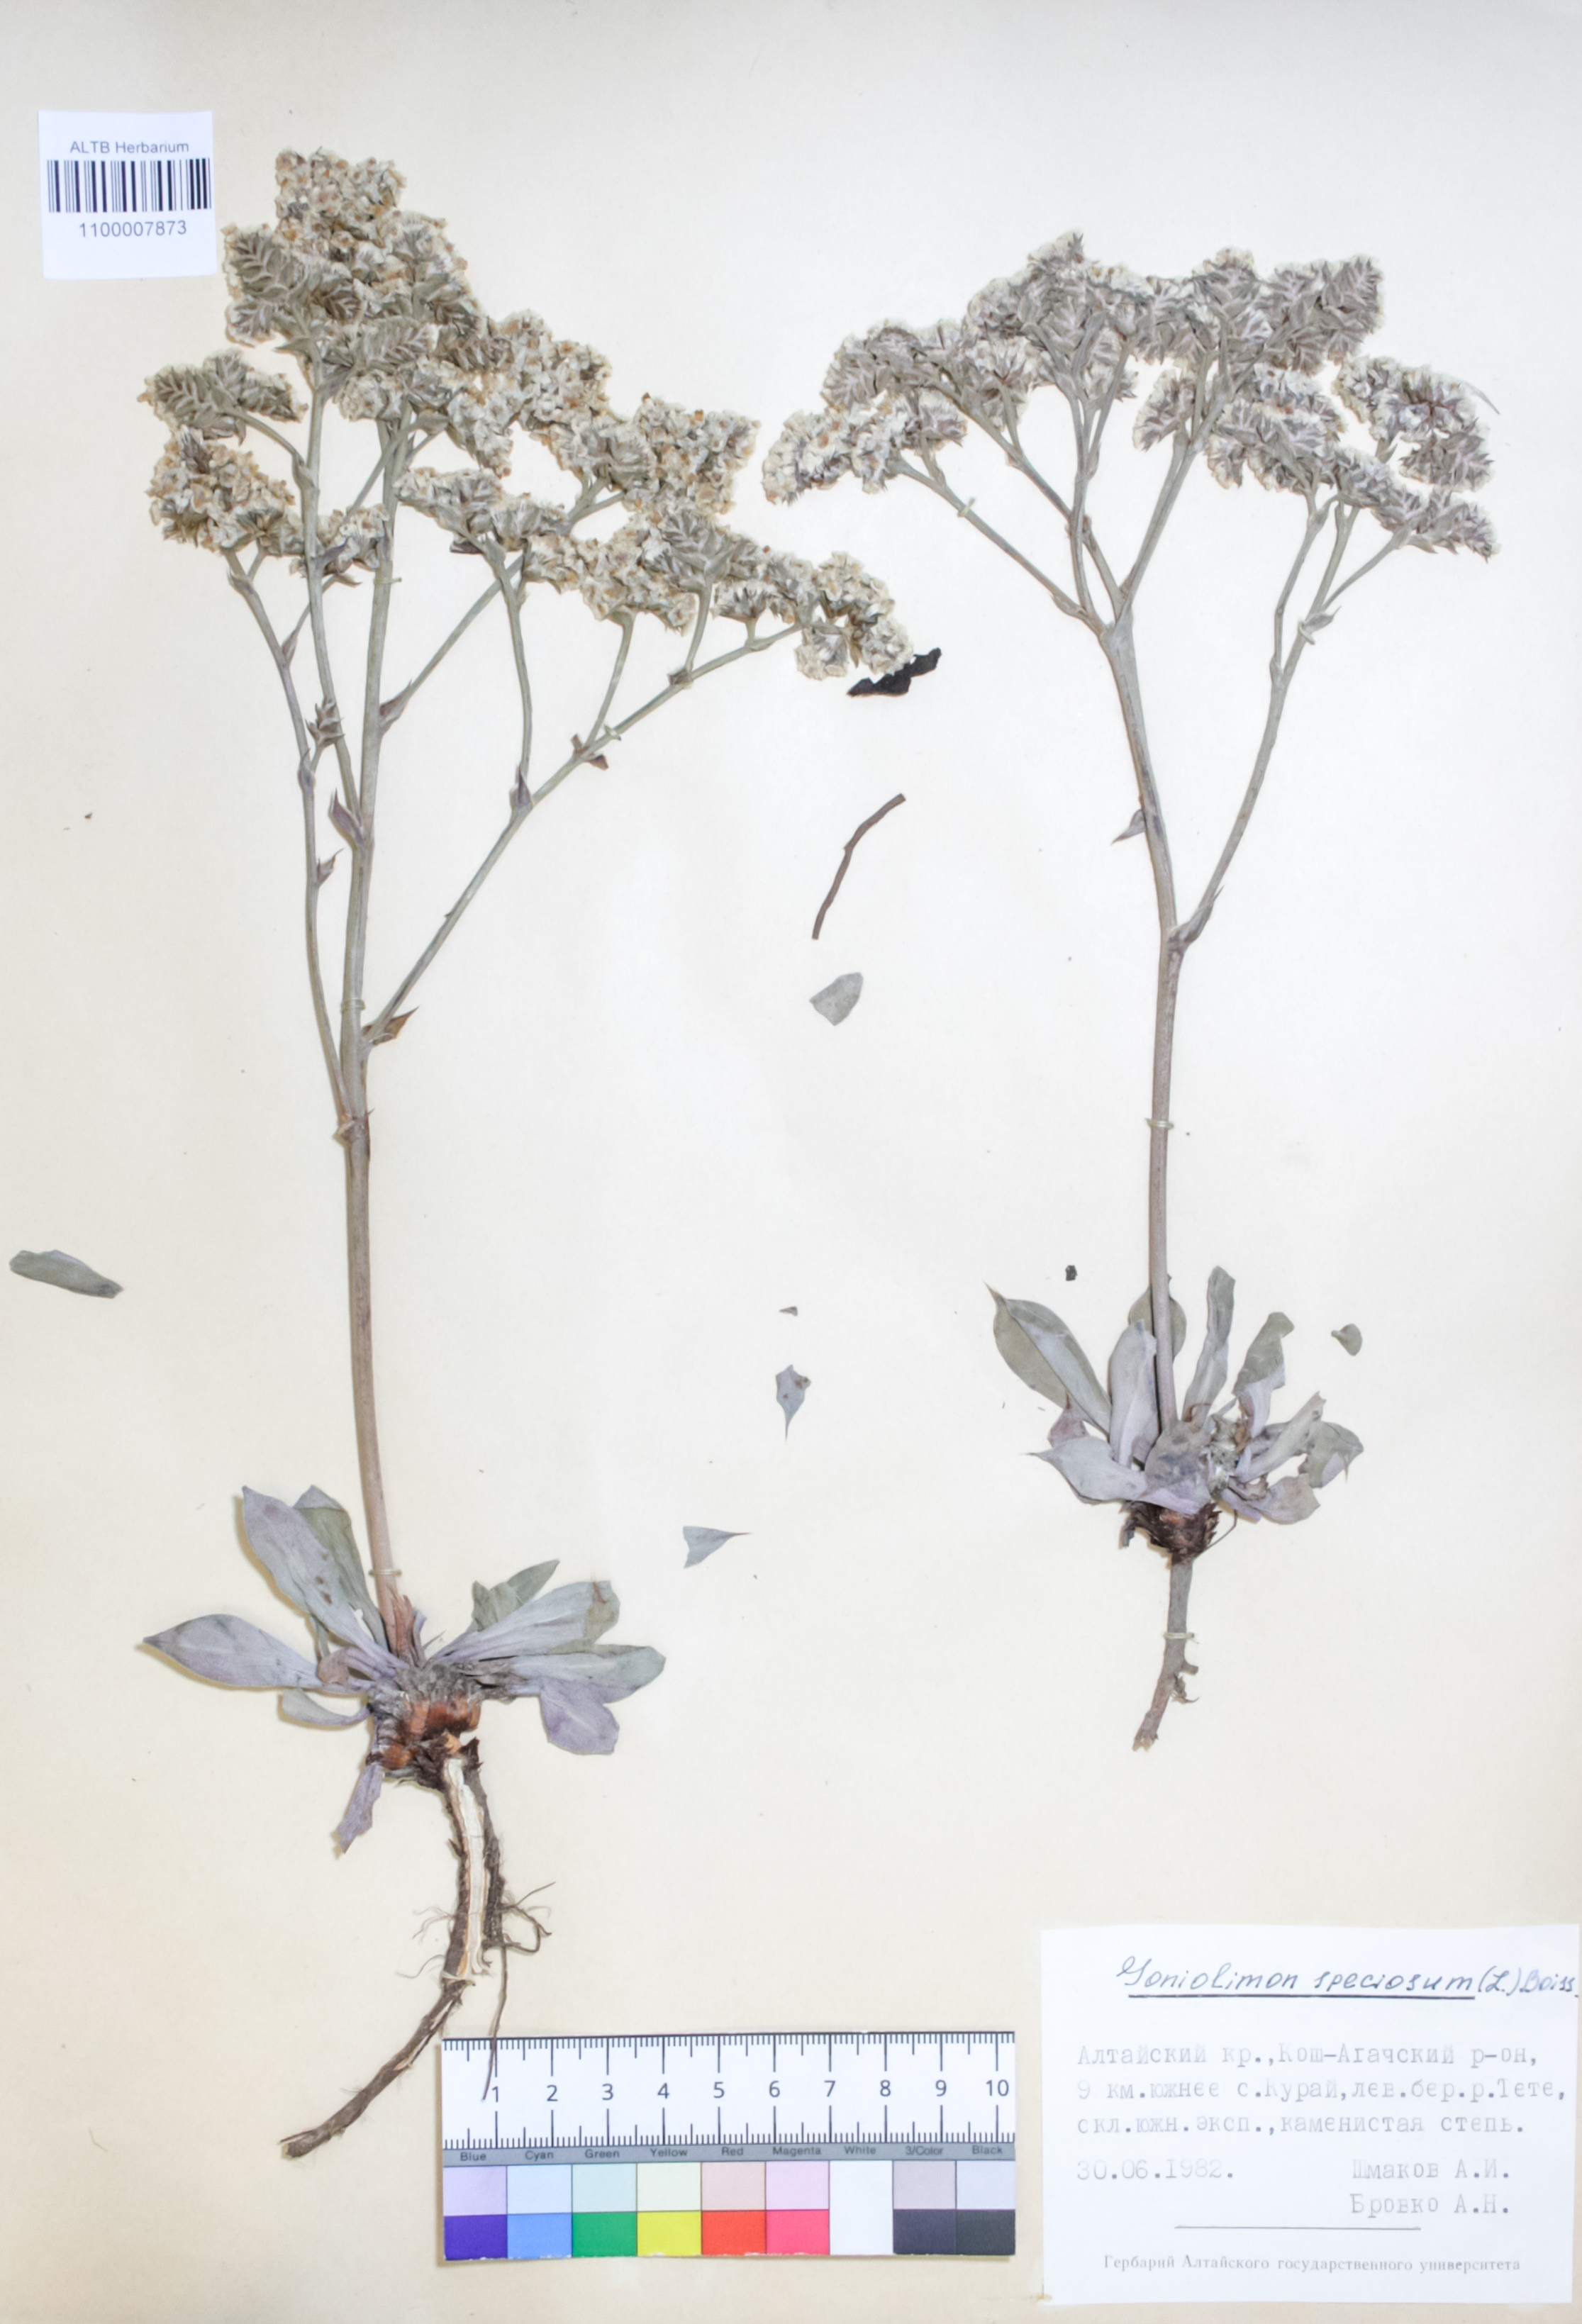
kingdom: Plantae
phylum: Tracheophyta
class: Magnoliopsida
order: Caryophyllales
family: Plumbaginaceae
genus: Goniolimon
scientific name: Goniolimon speciosum
